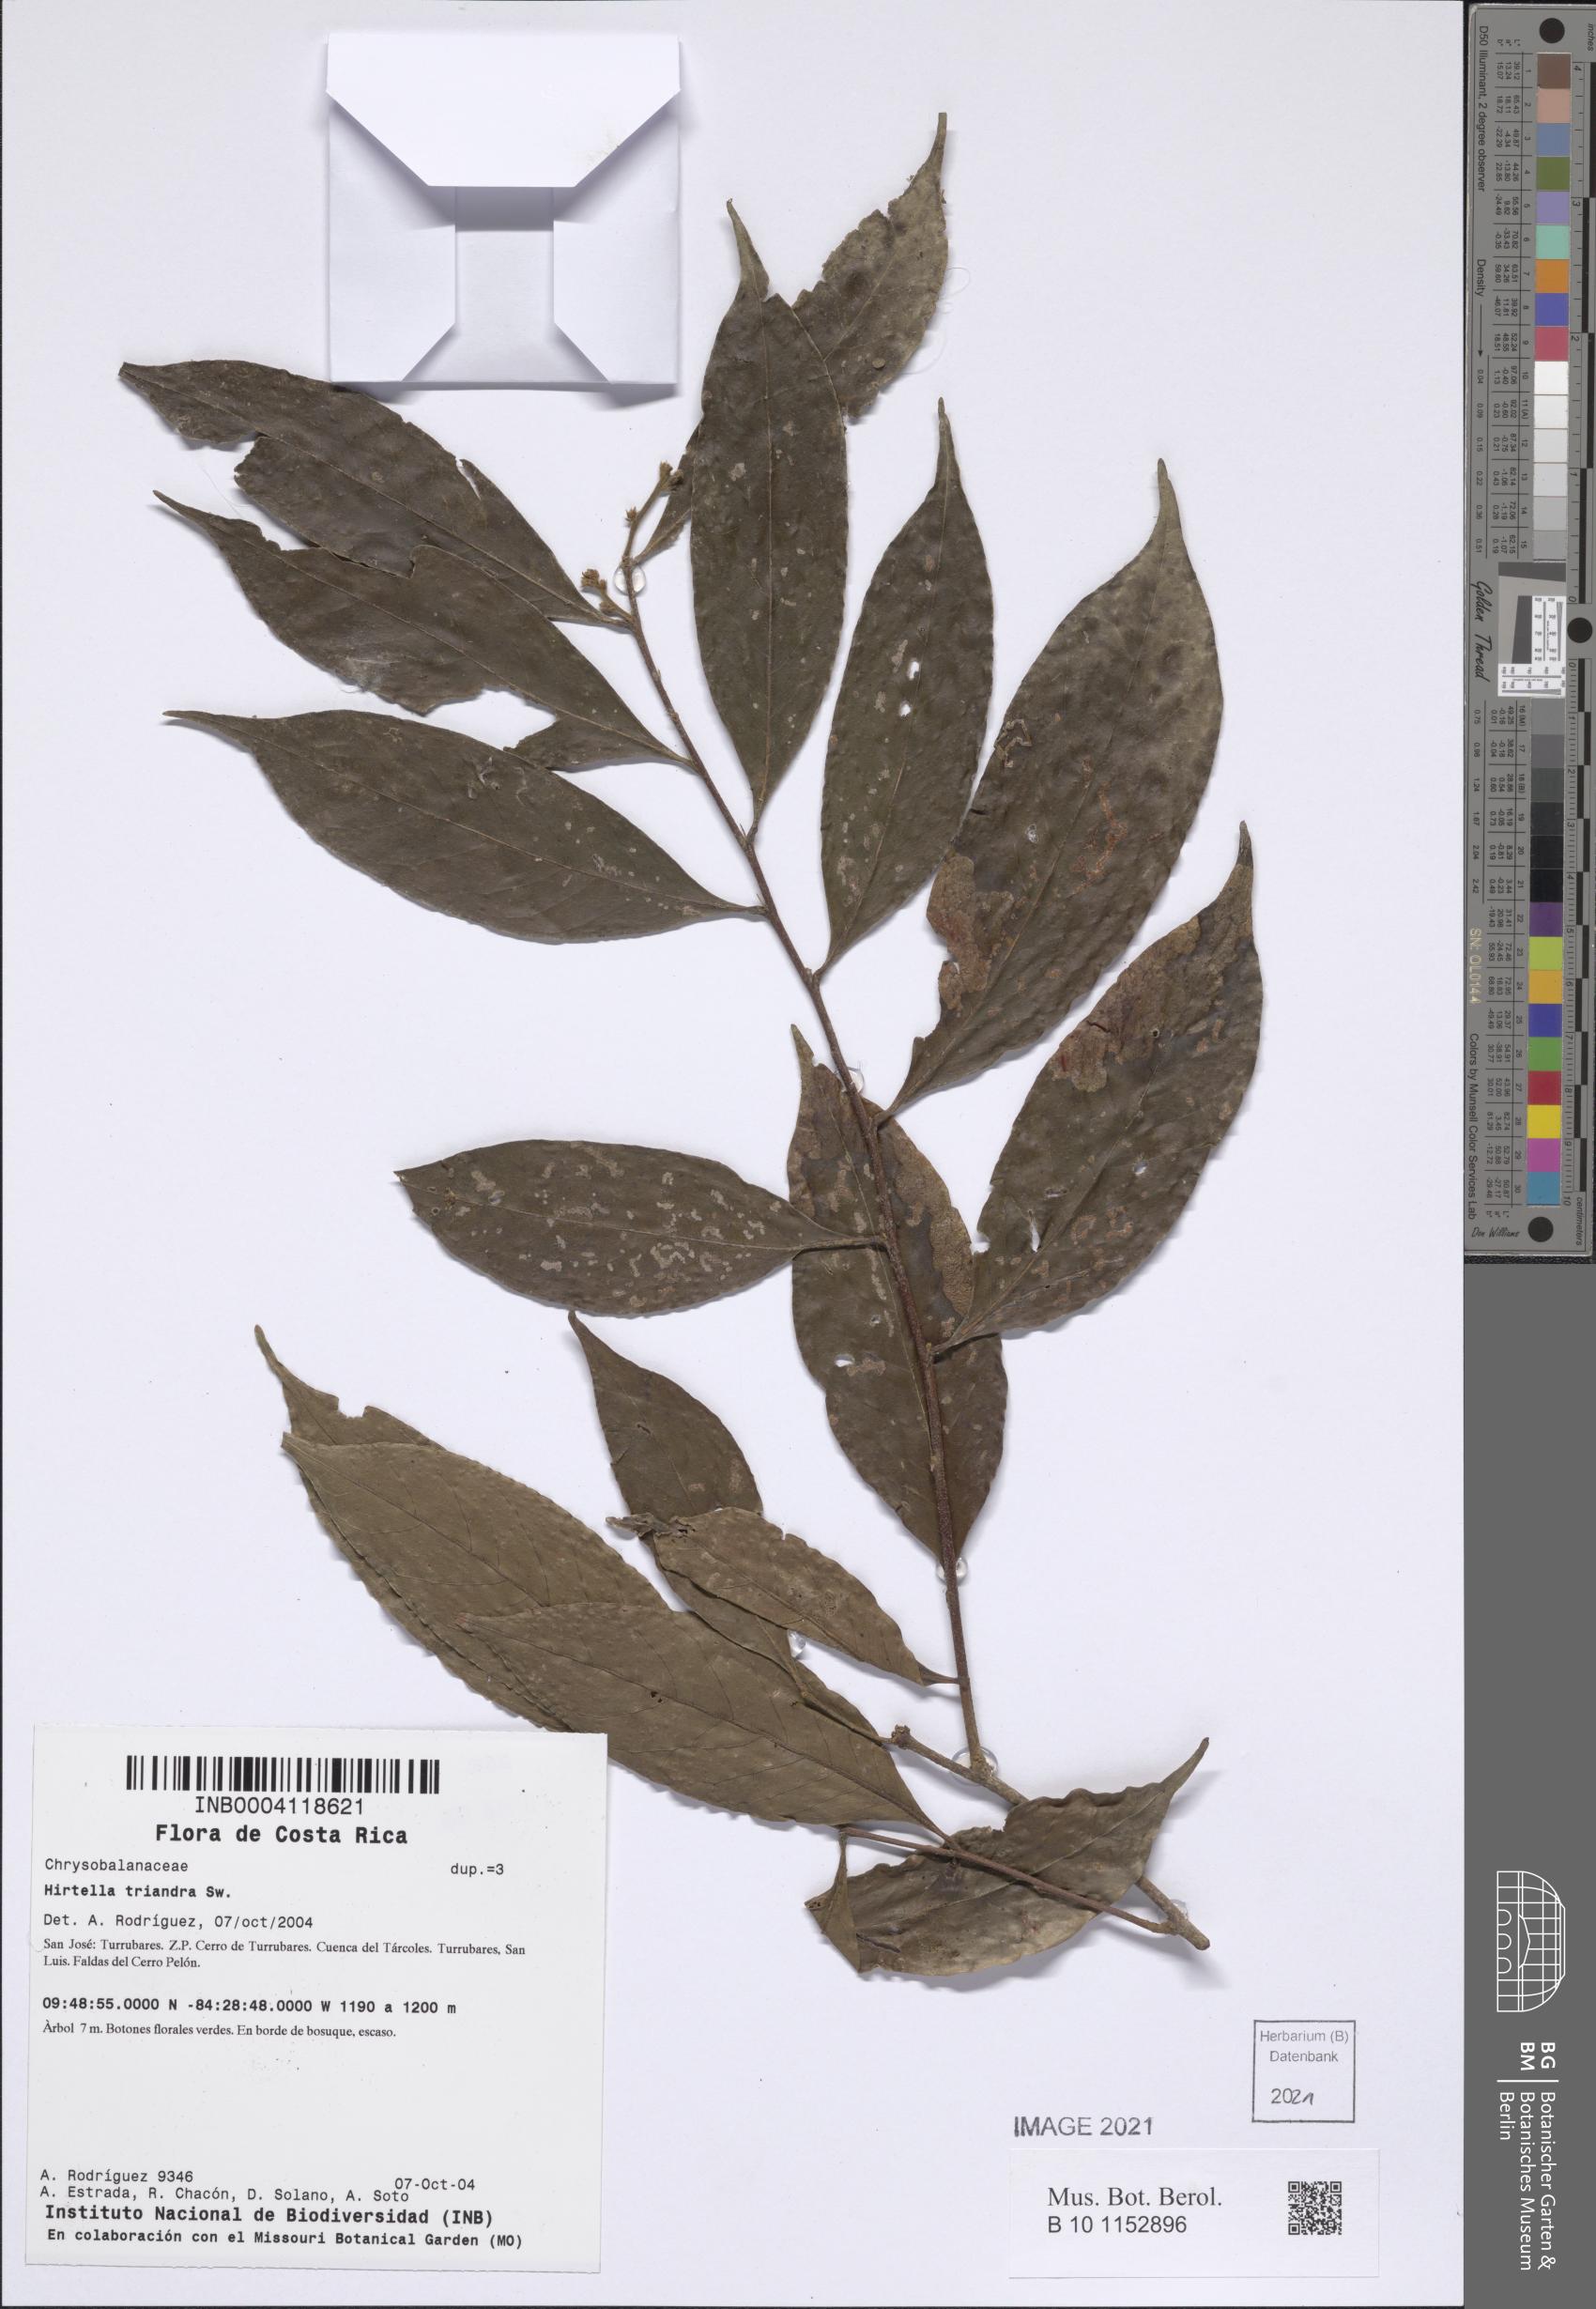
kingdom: Plantae
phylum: Tracheophyta
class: Magnoliopsida
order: Malpighiales
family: Chrysobalanaceae
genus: Hirtella
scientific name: Hirtella triandra
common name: Hairy plum
